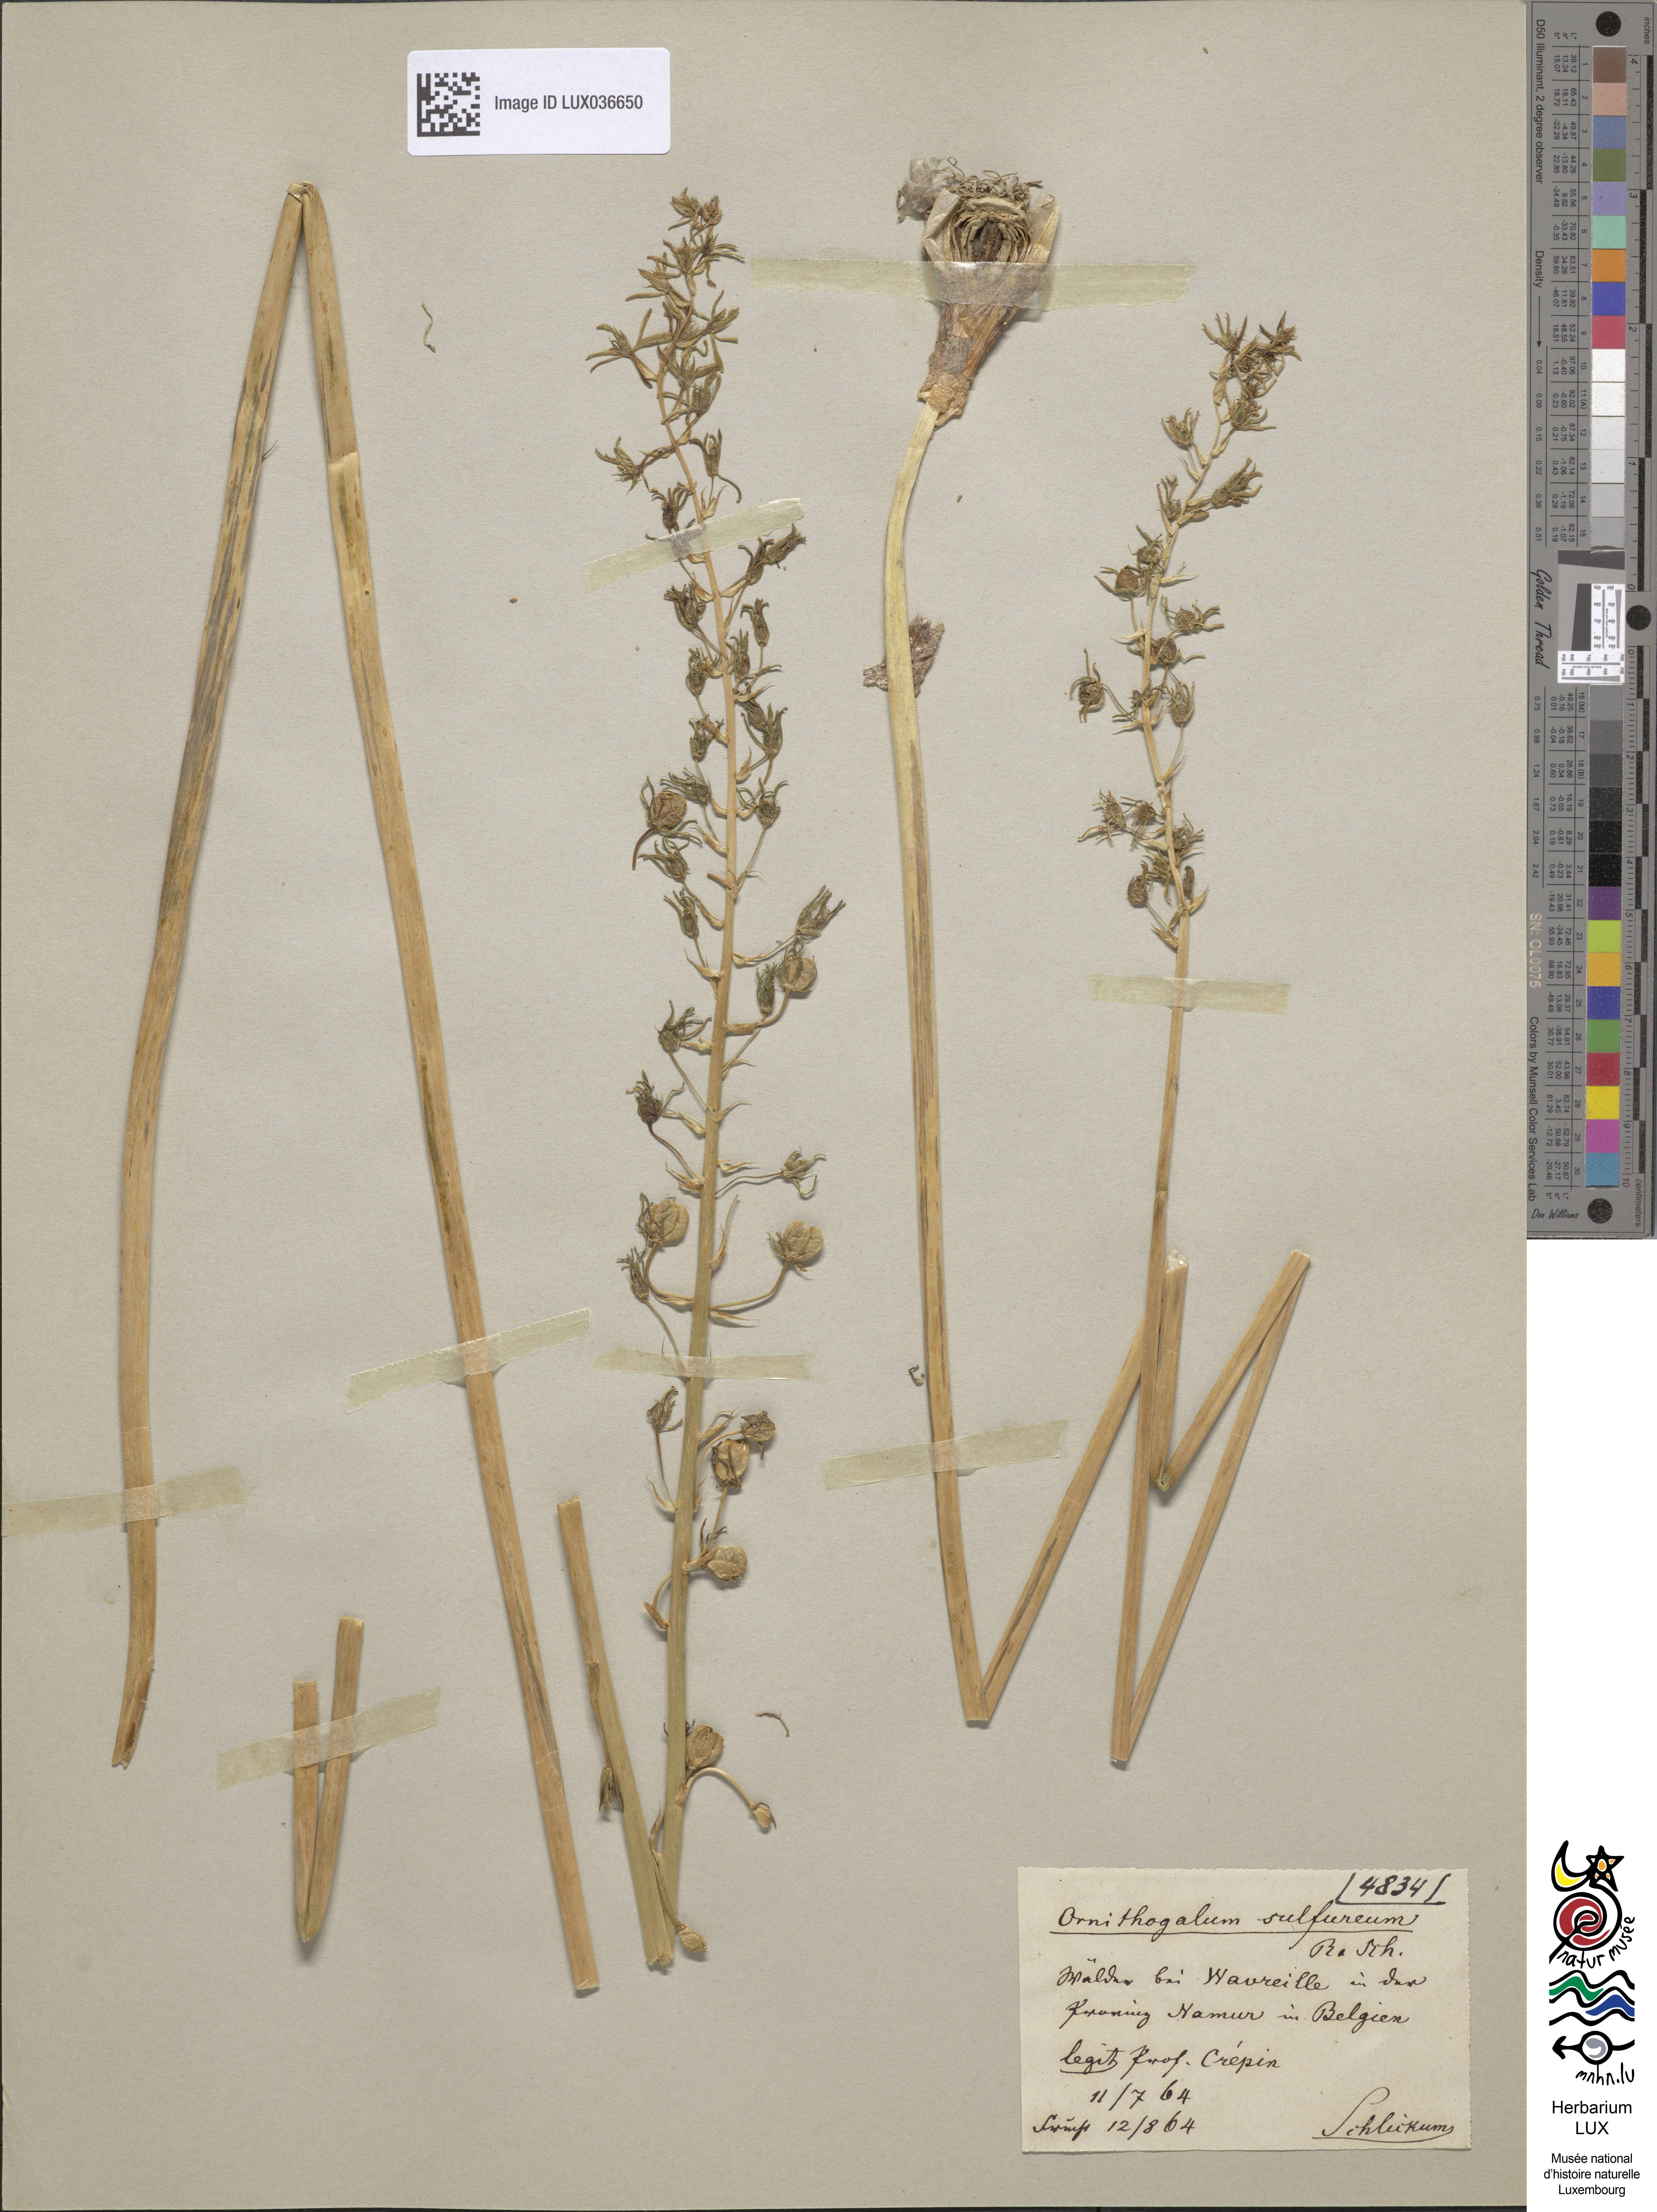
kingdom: Plantae
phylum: Tracheophyta
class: Liliopsida
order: Asparagales
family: Asparagaceae
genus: Ornithogalum
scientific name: Ornithogalum pyrenaicum
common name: Spiked star-of-bethlehem
